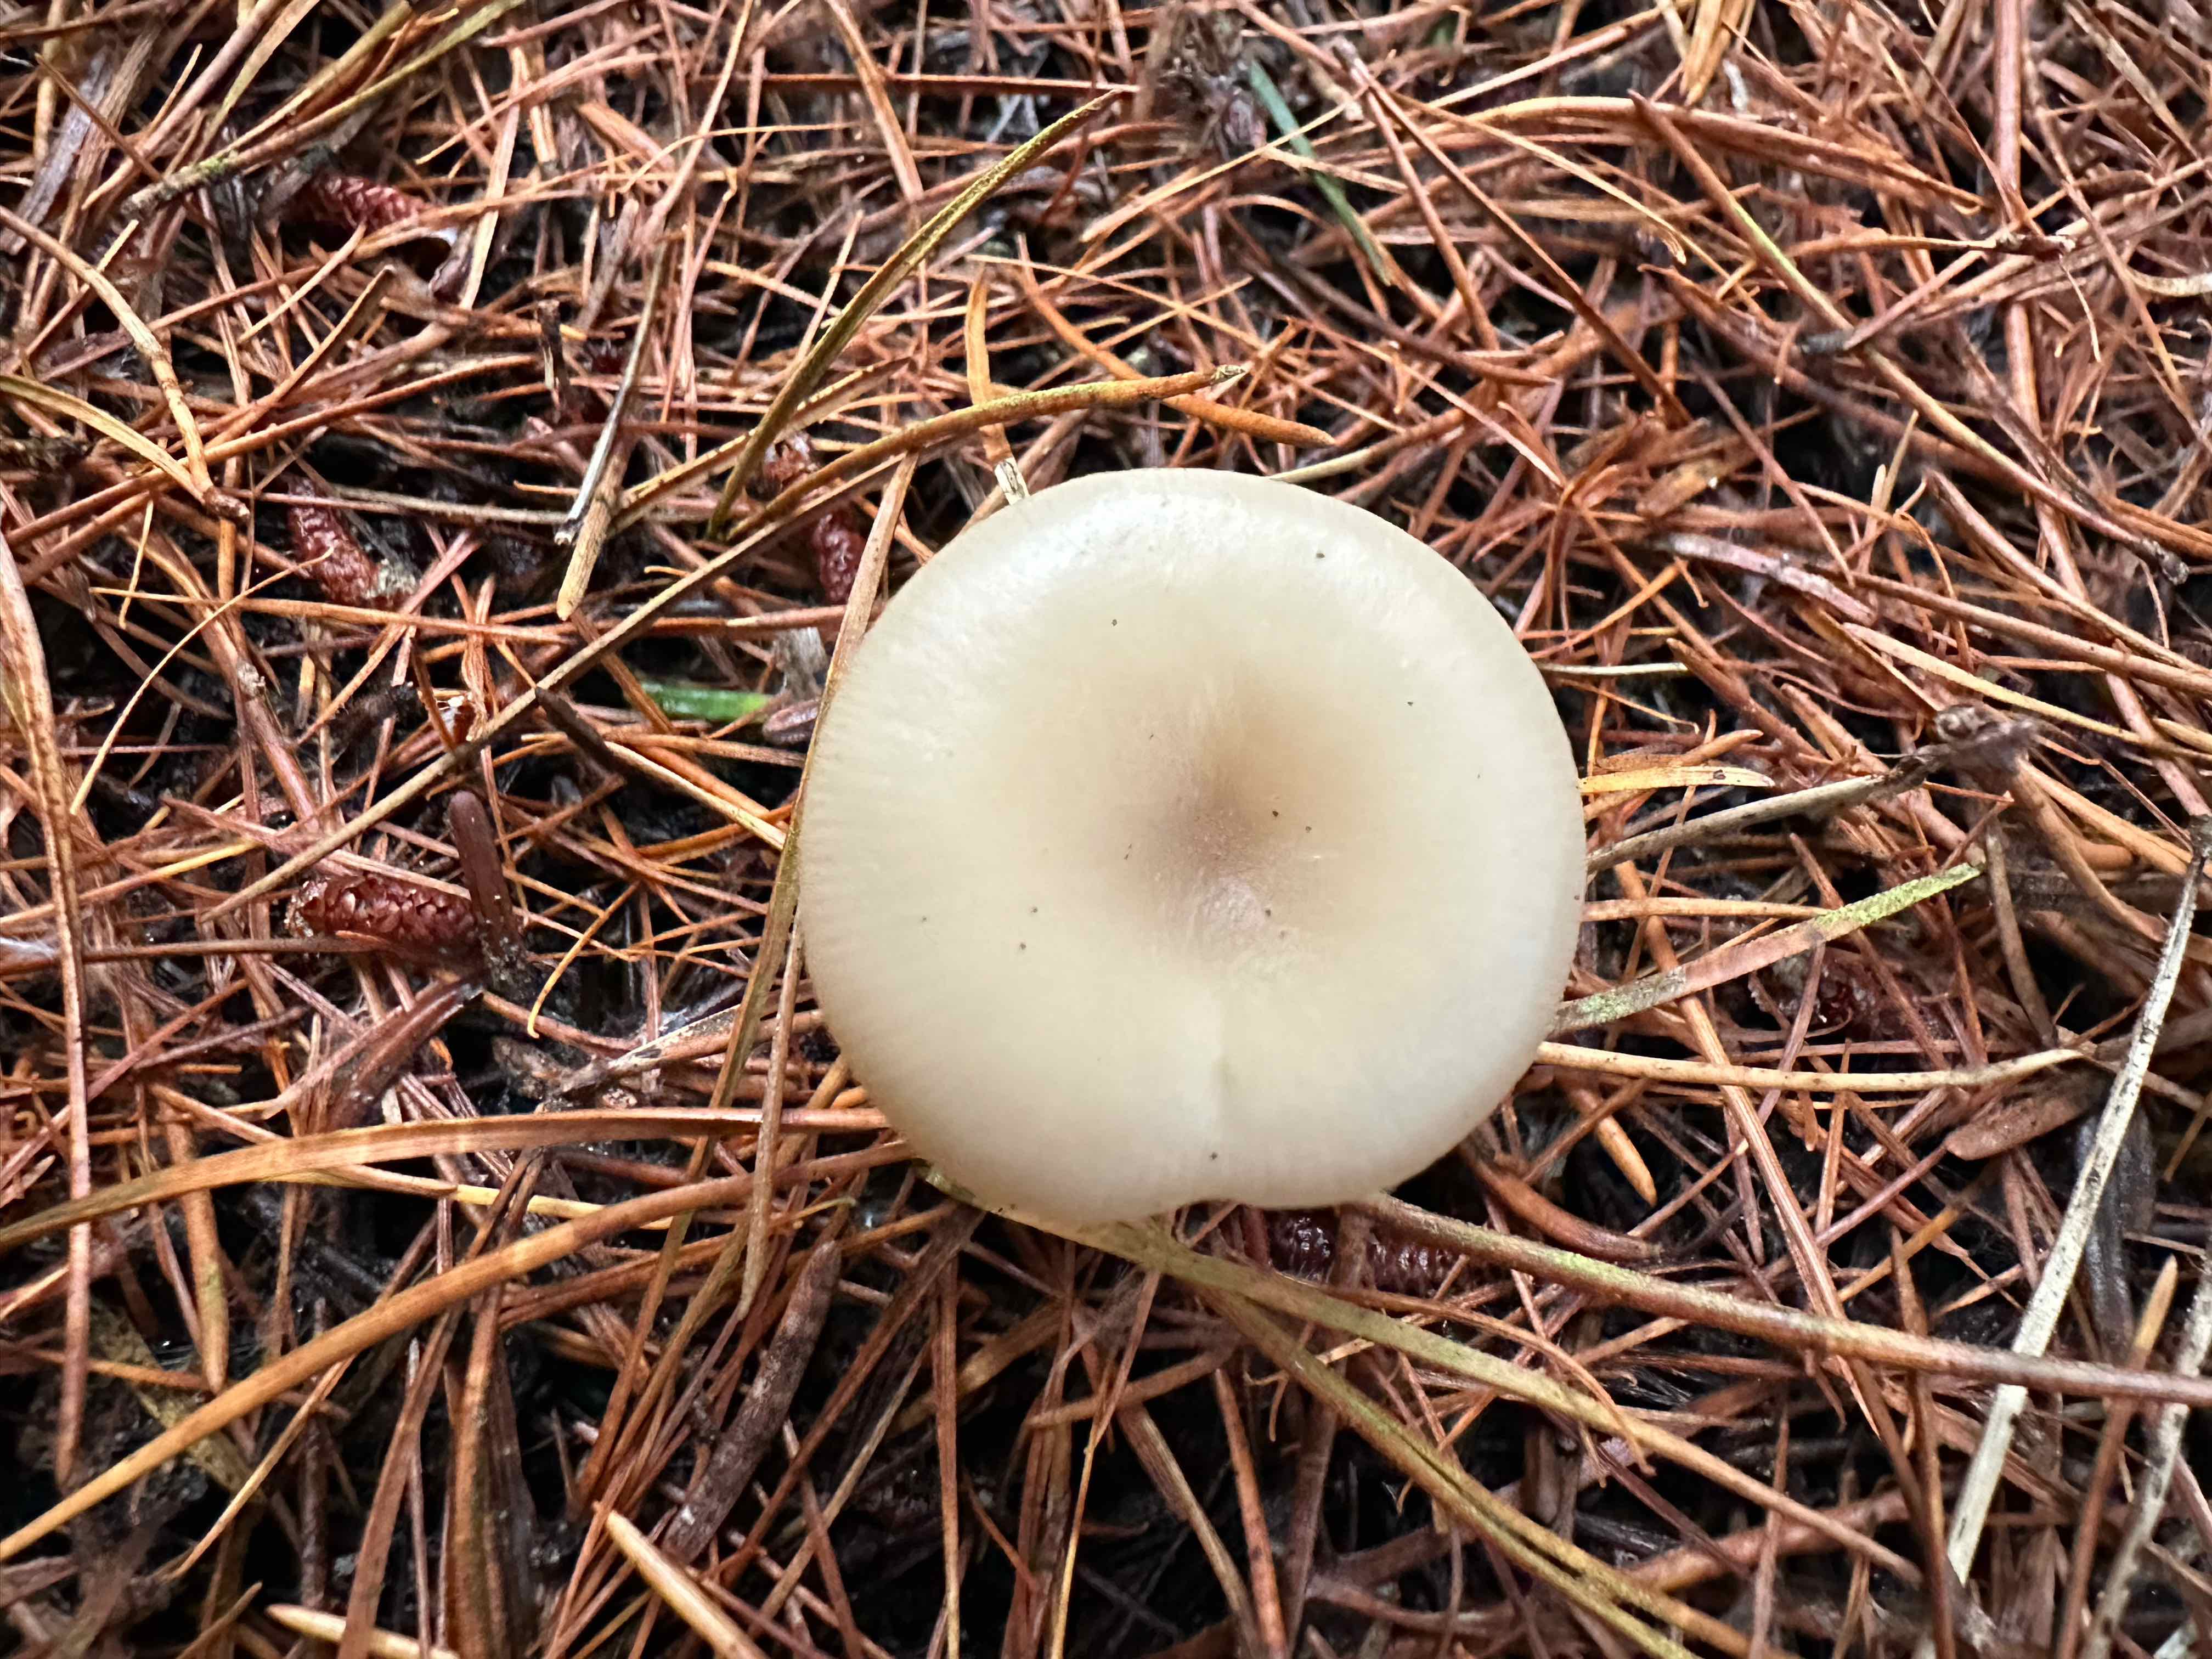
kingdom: Fungi
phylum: Basidiomycota
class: Agaricomycetes
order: Agaricales
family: Tricholomataceae
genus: Clitocybe
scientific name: Clitocybe
